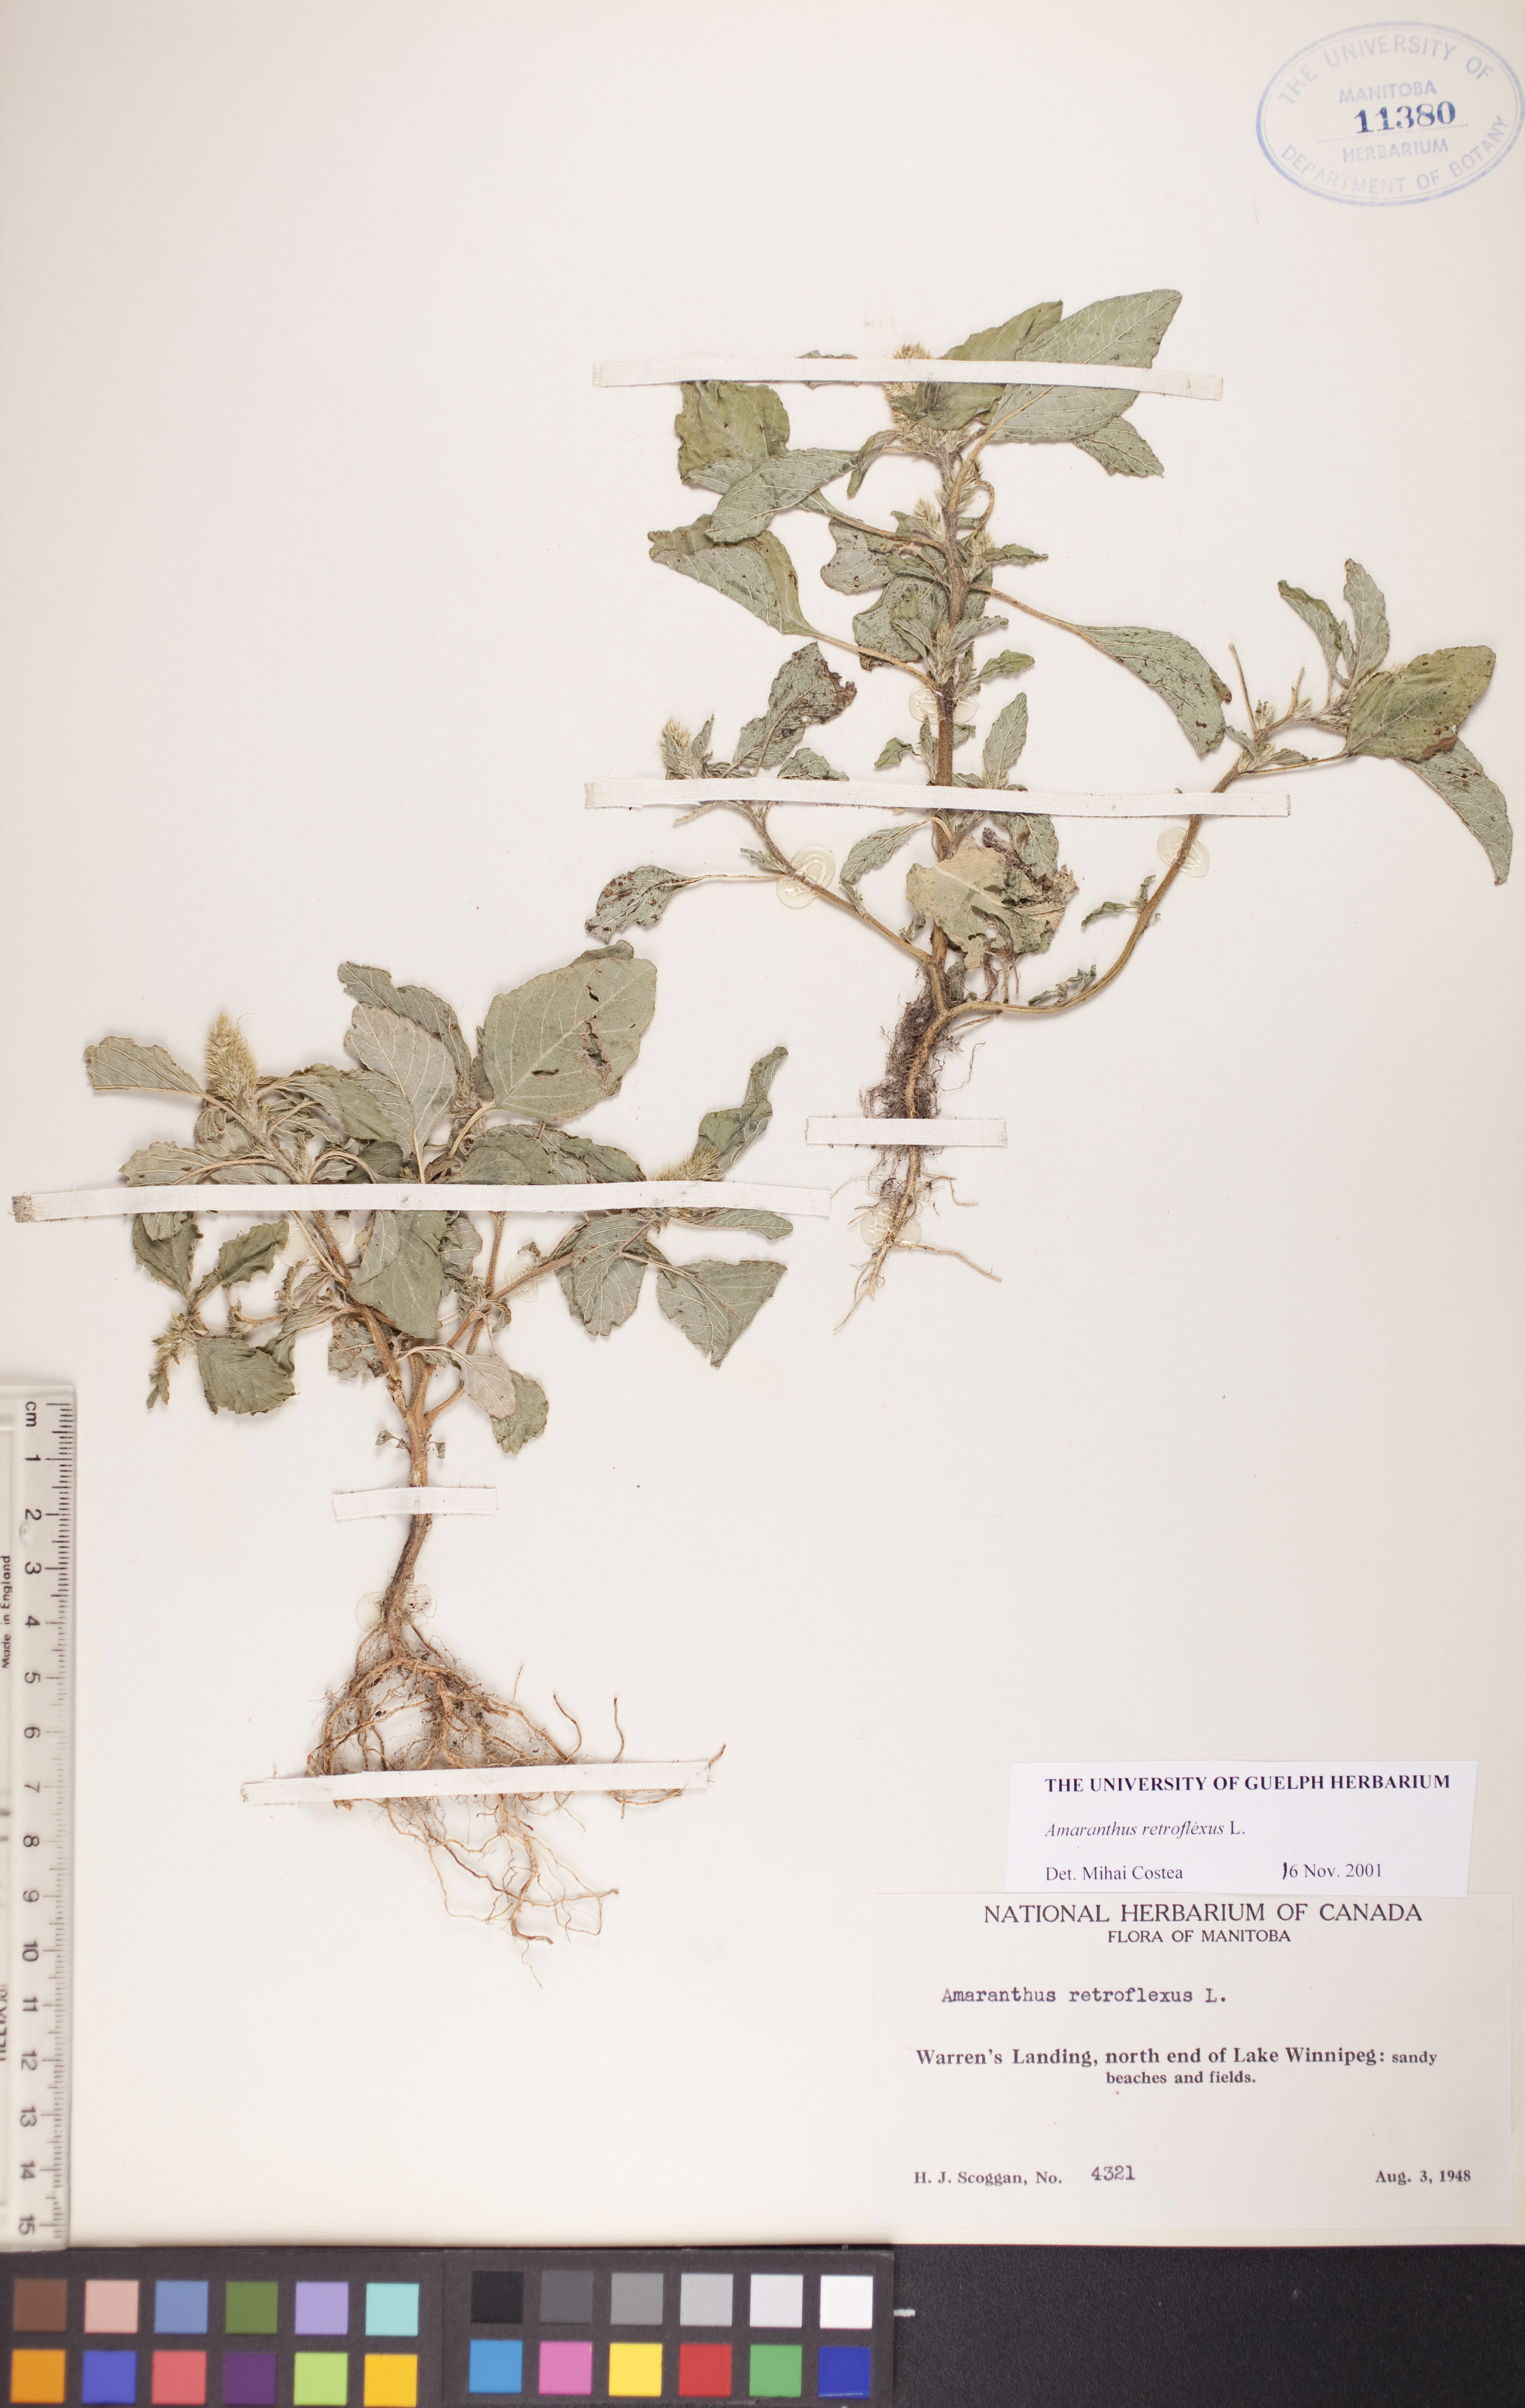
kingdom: Plantae
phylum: Tracheophyta
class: Magnoliopsida
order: Caryophyllales
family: Amaranthaceae
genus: Amaranthus
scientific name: Amaranthus retroflexus
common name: Redroot amaranth
